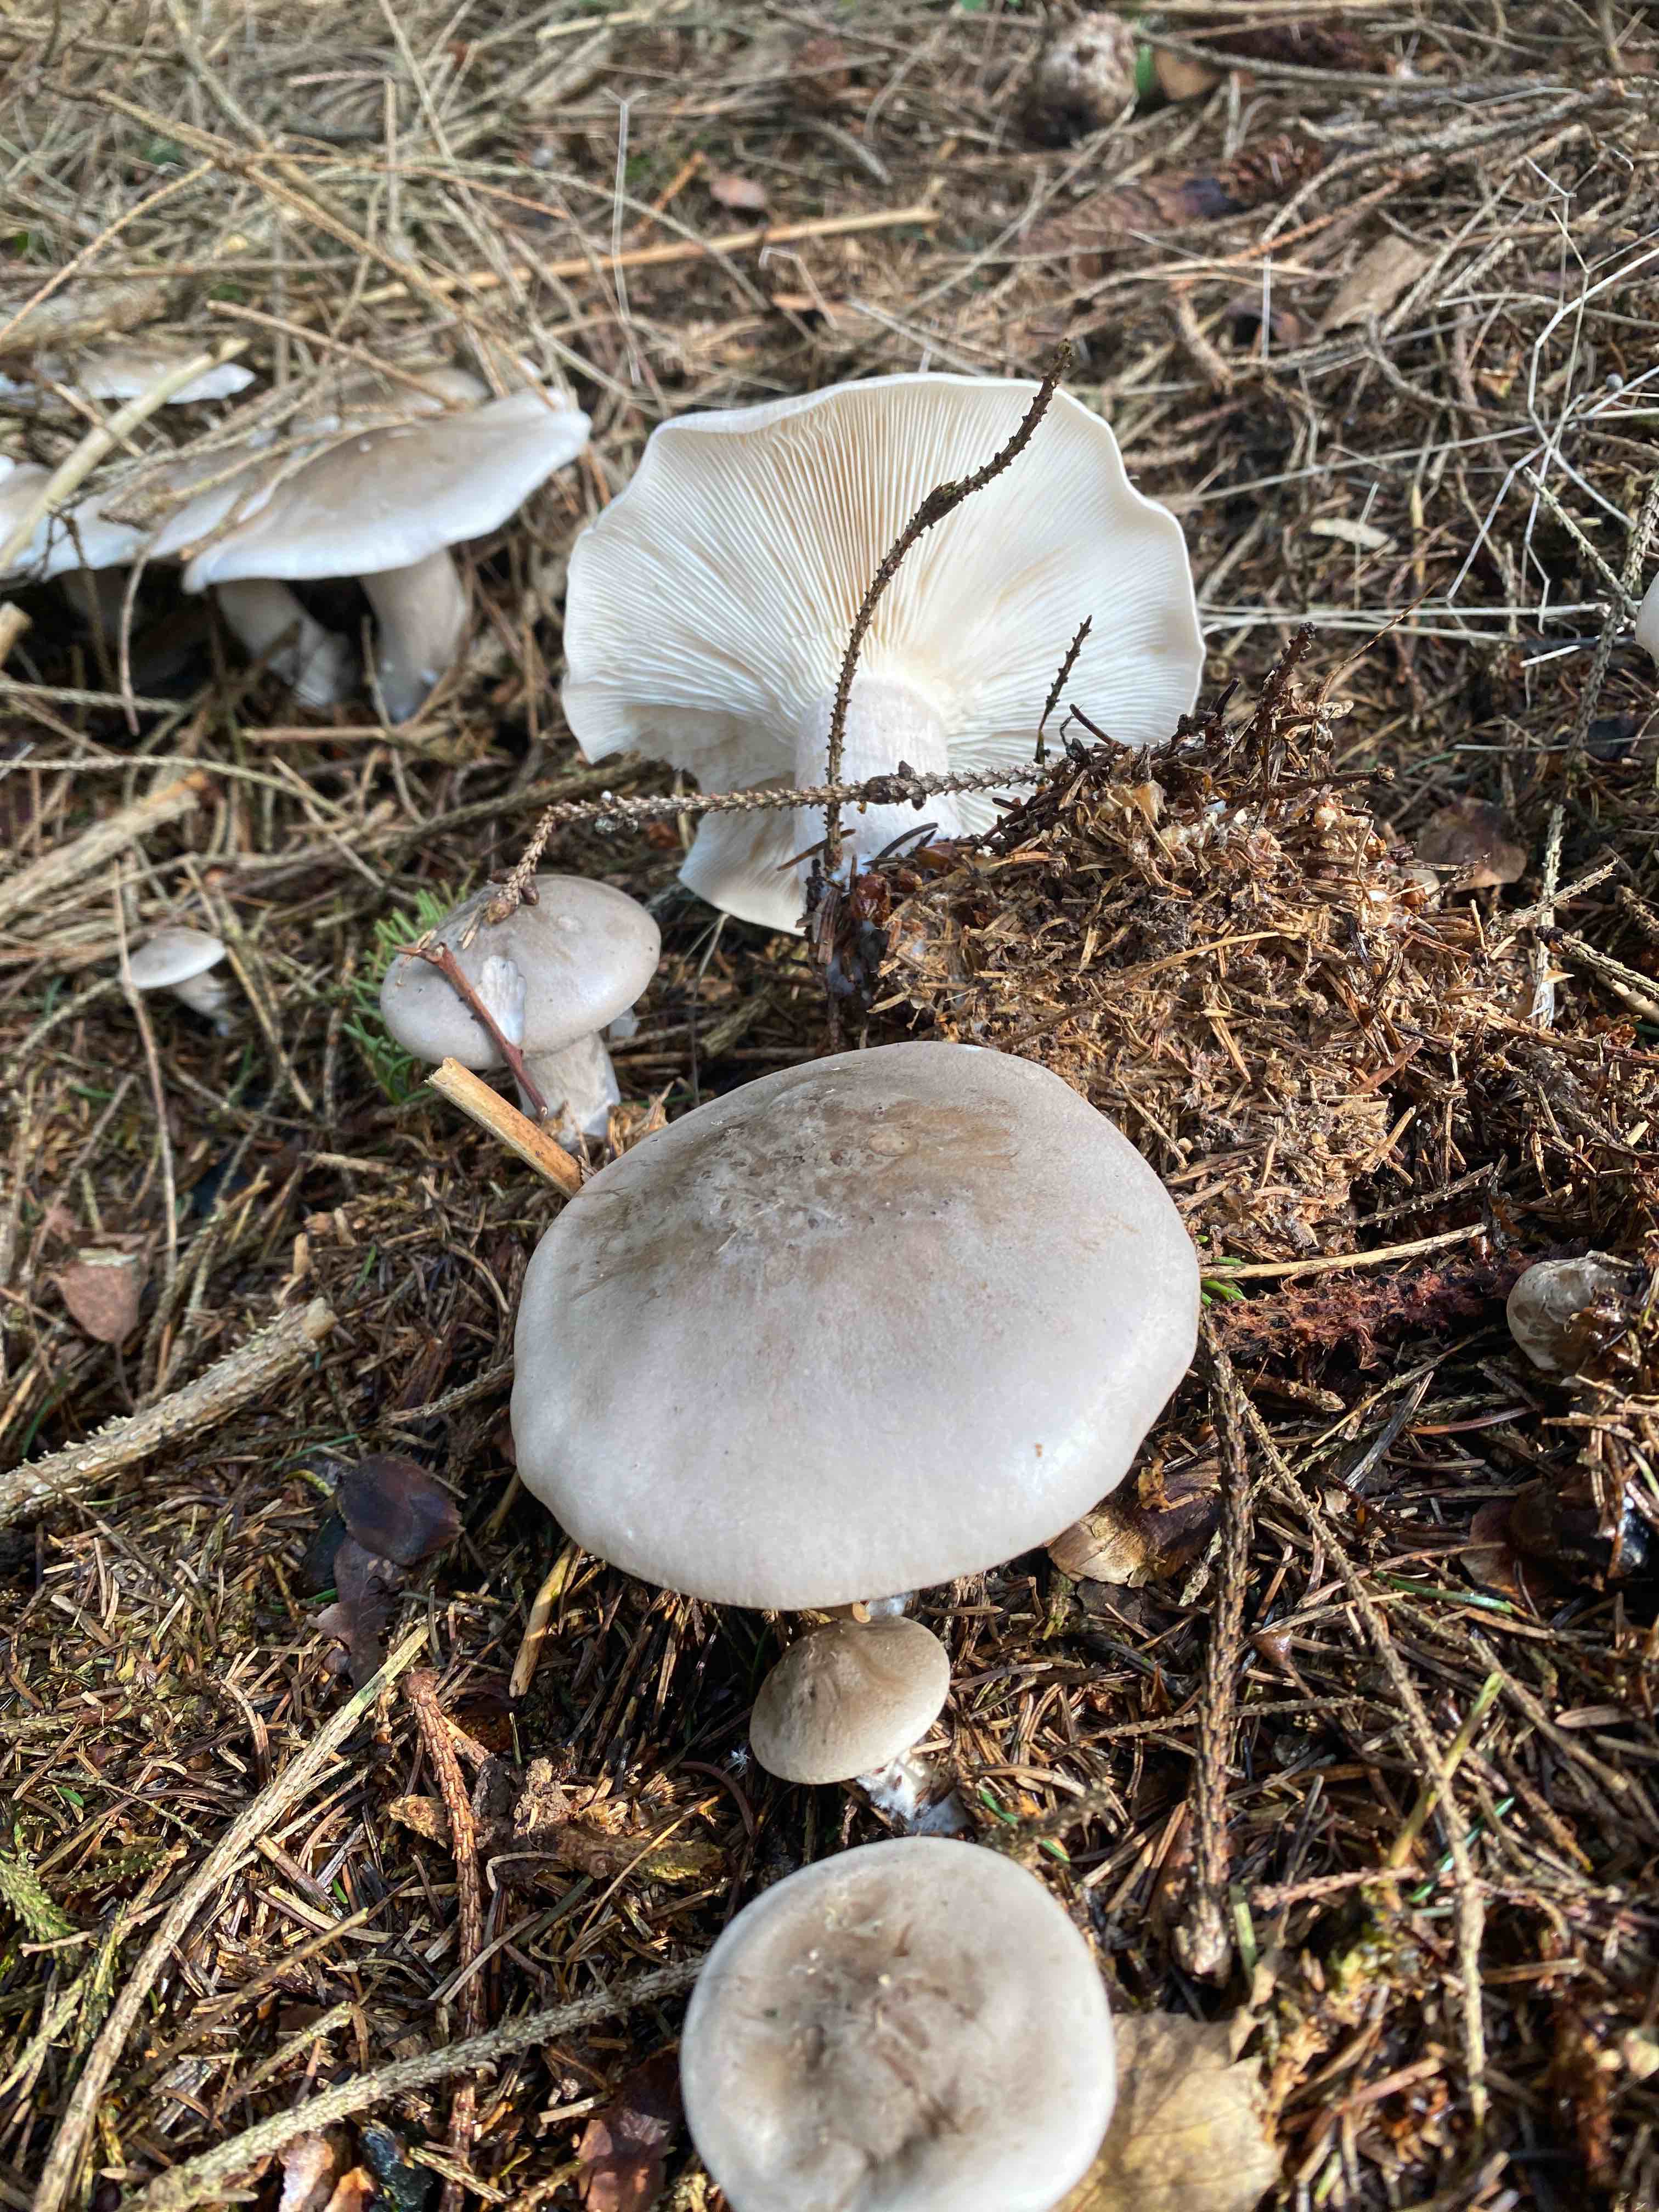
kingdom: Fungi
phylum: Basidiomycota
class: Agaricomycetes
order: Agaricales
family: Tricholomataceae
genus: Clitocybe
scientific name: Clitocybe nebularis
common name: tåge-tragthat
